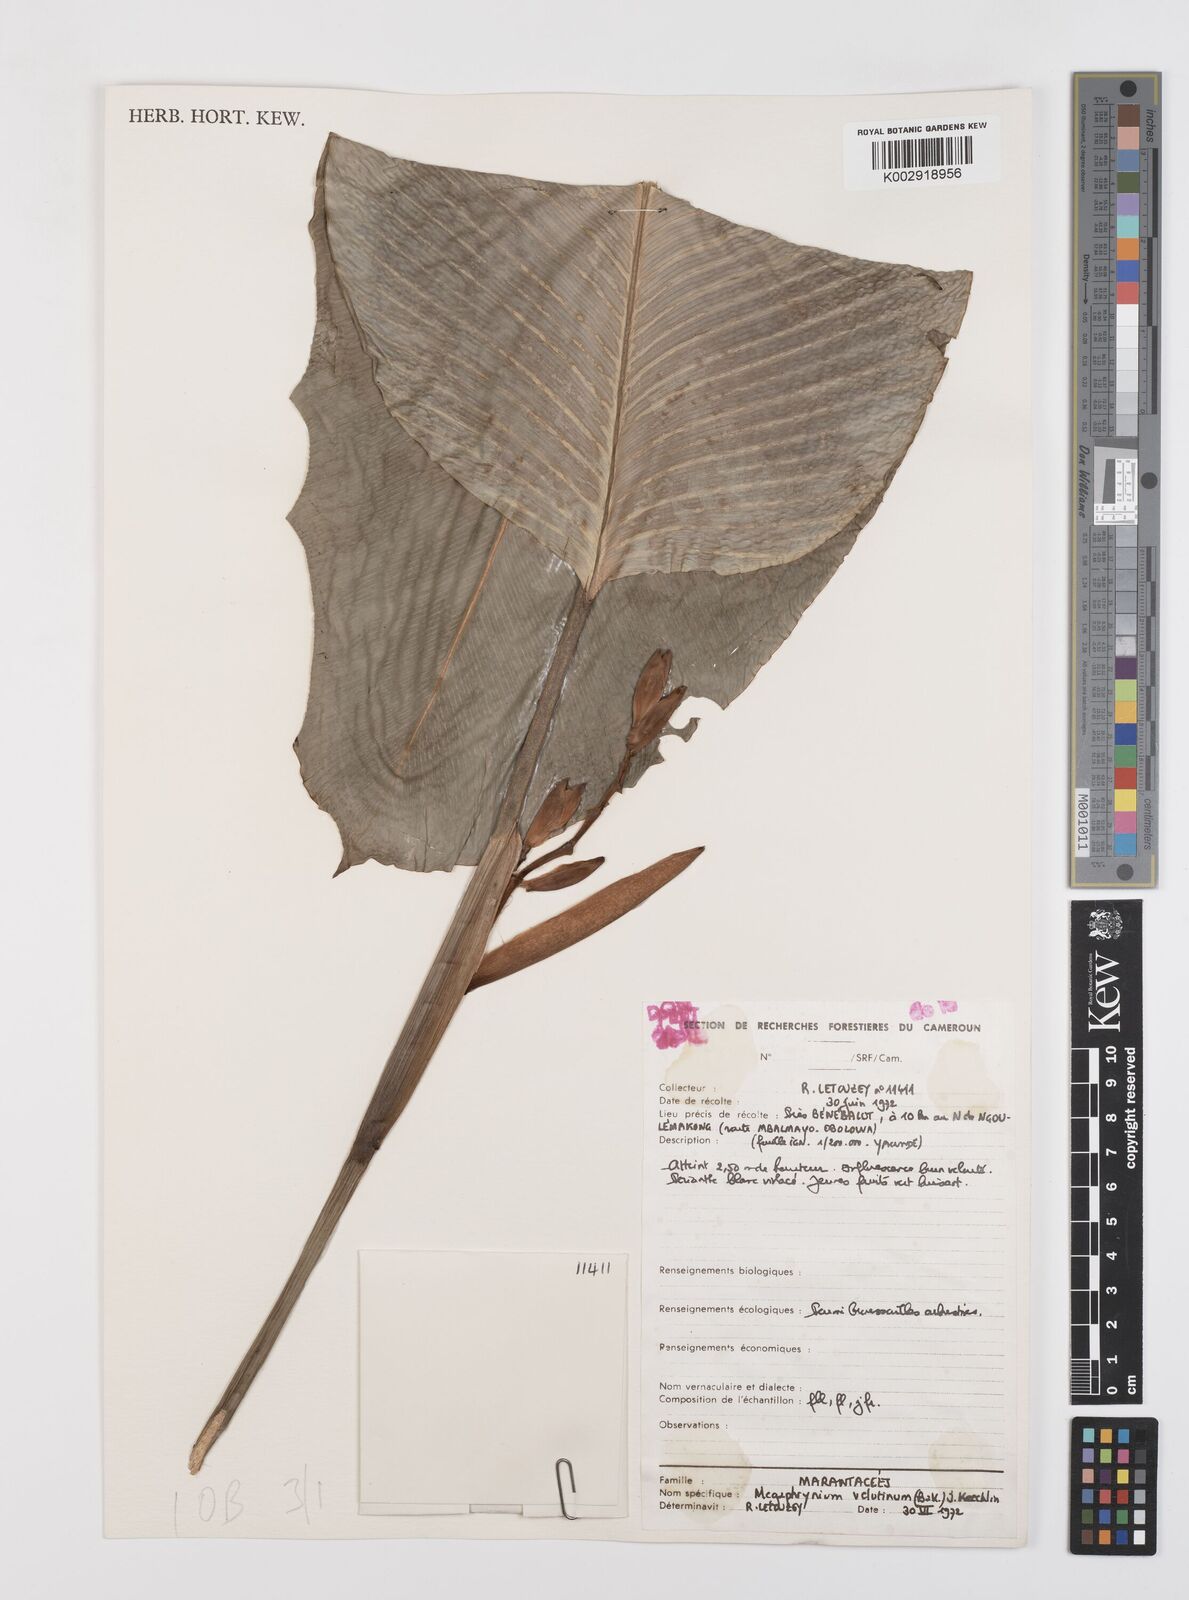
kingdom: Plantae
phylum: Tracheophyta
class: Liliopsida
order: Zingiberales
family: Marantaceae
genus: Megaphrynium
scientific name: Megaphrynium velutinum
